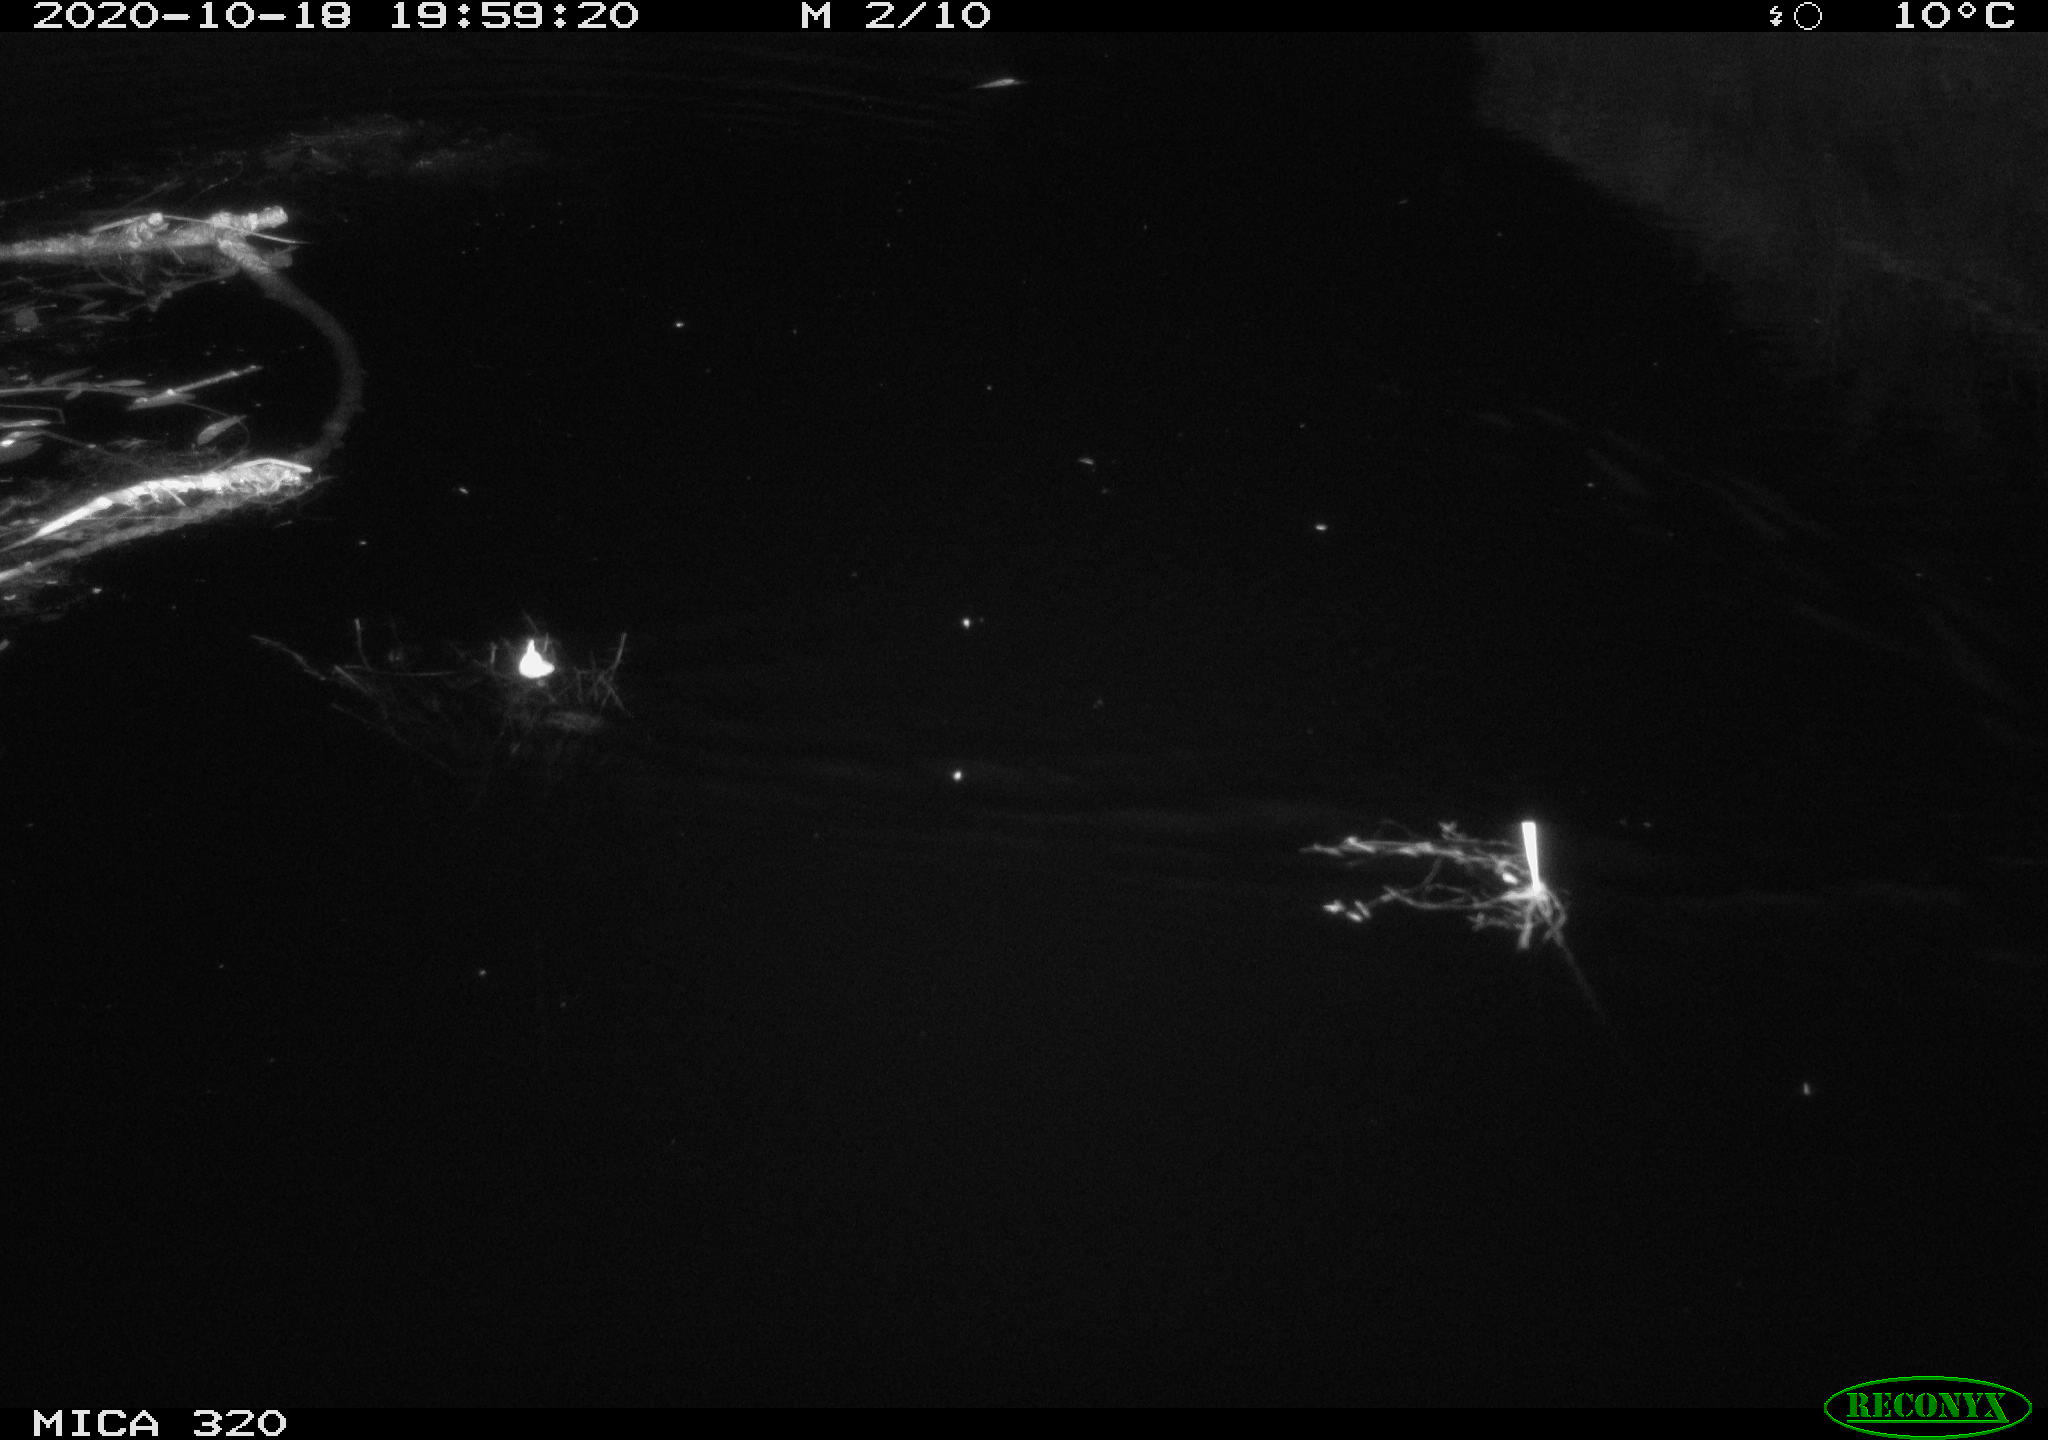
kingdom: Animalia
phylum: Chordata
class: Aves
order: Gruiformes
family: Rallidae
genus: Gallinula
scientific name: Gallinula chloropus
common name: Common moorhen
